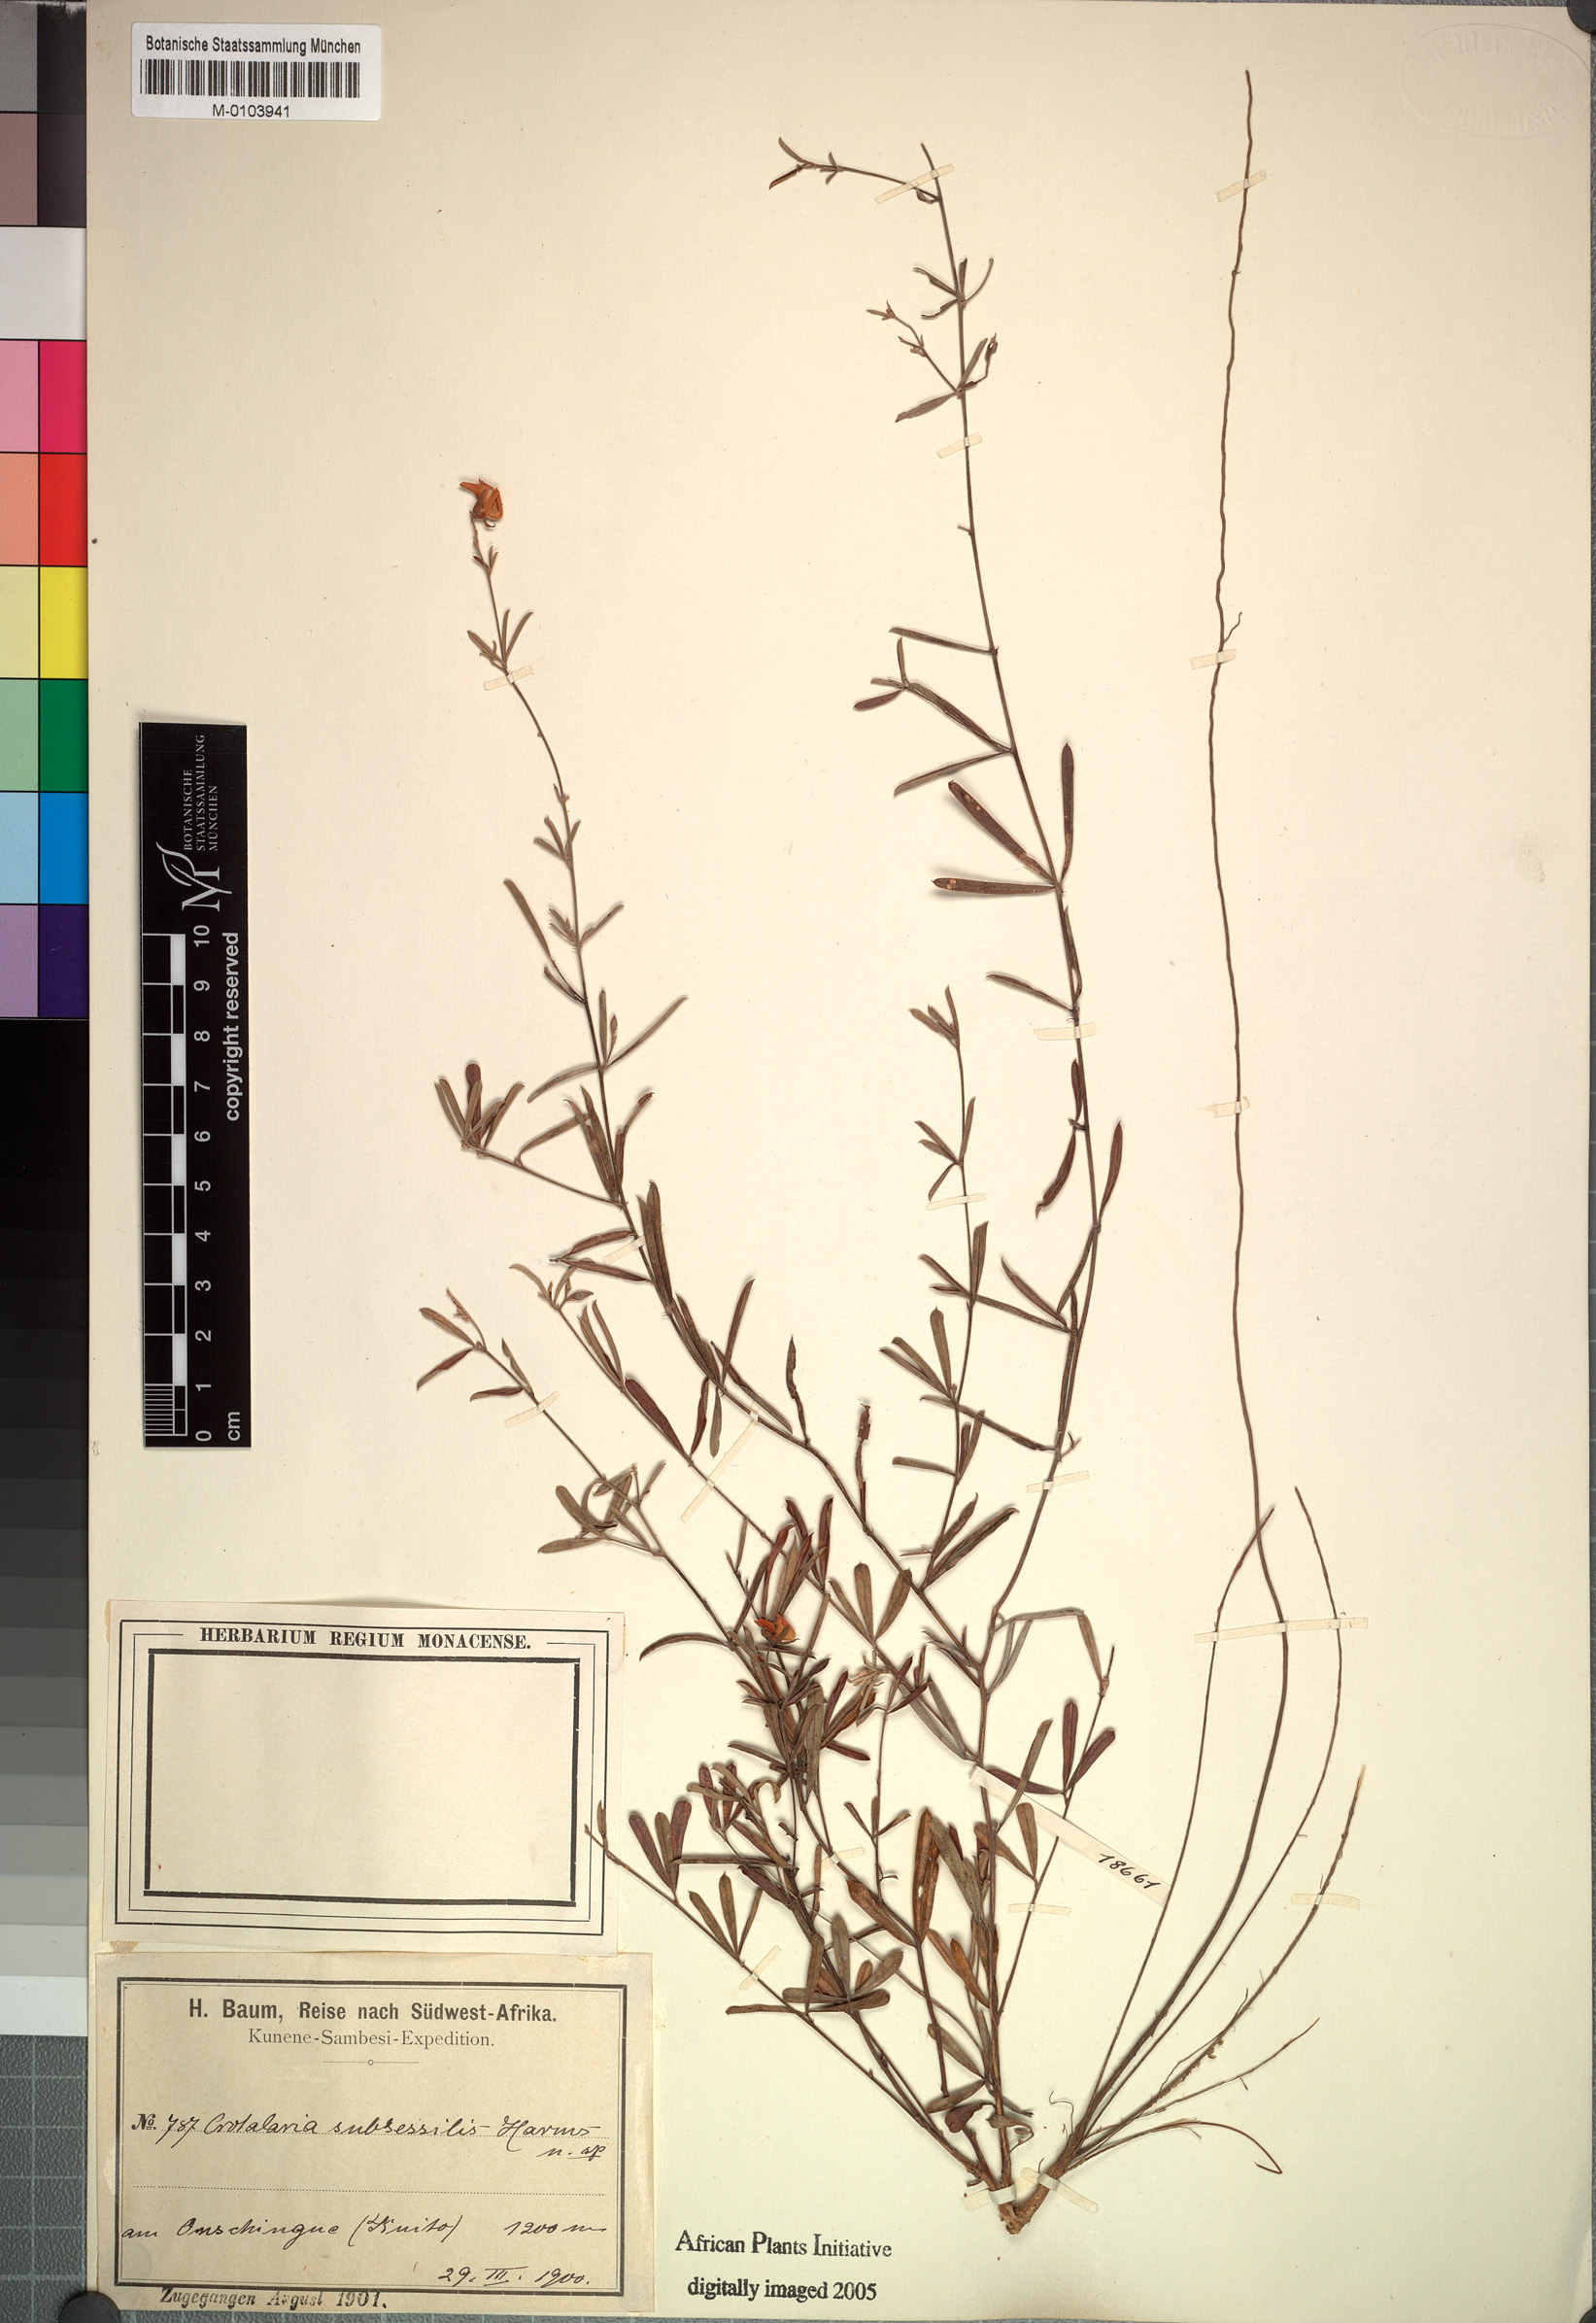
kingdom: Plantae
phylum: Tracheophyta
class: Magnoliopsida
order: Fabales
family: Fabaceae
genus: Crotalaria
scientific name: Crotalaria subsessilis
